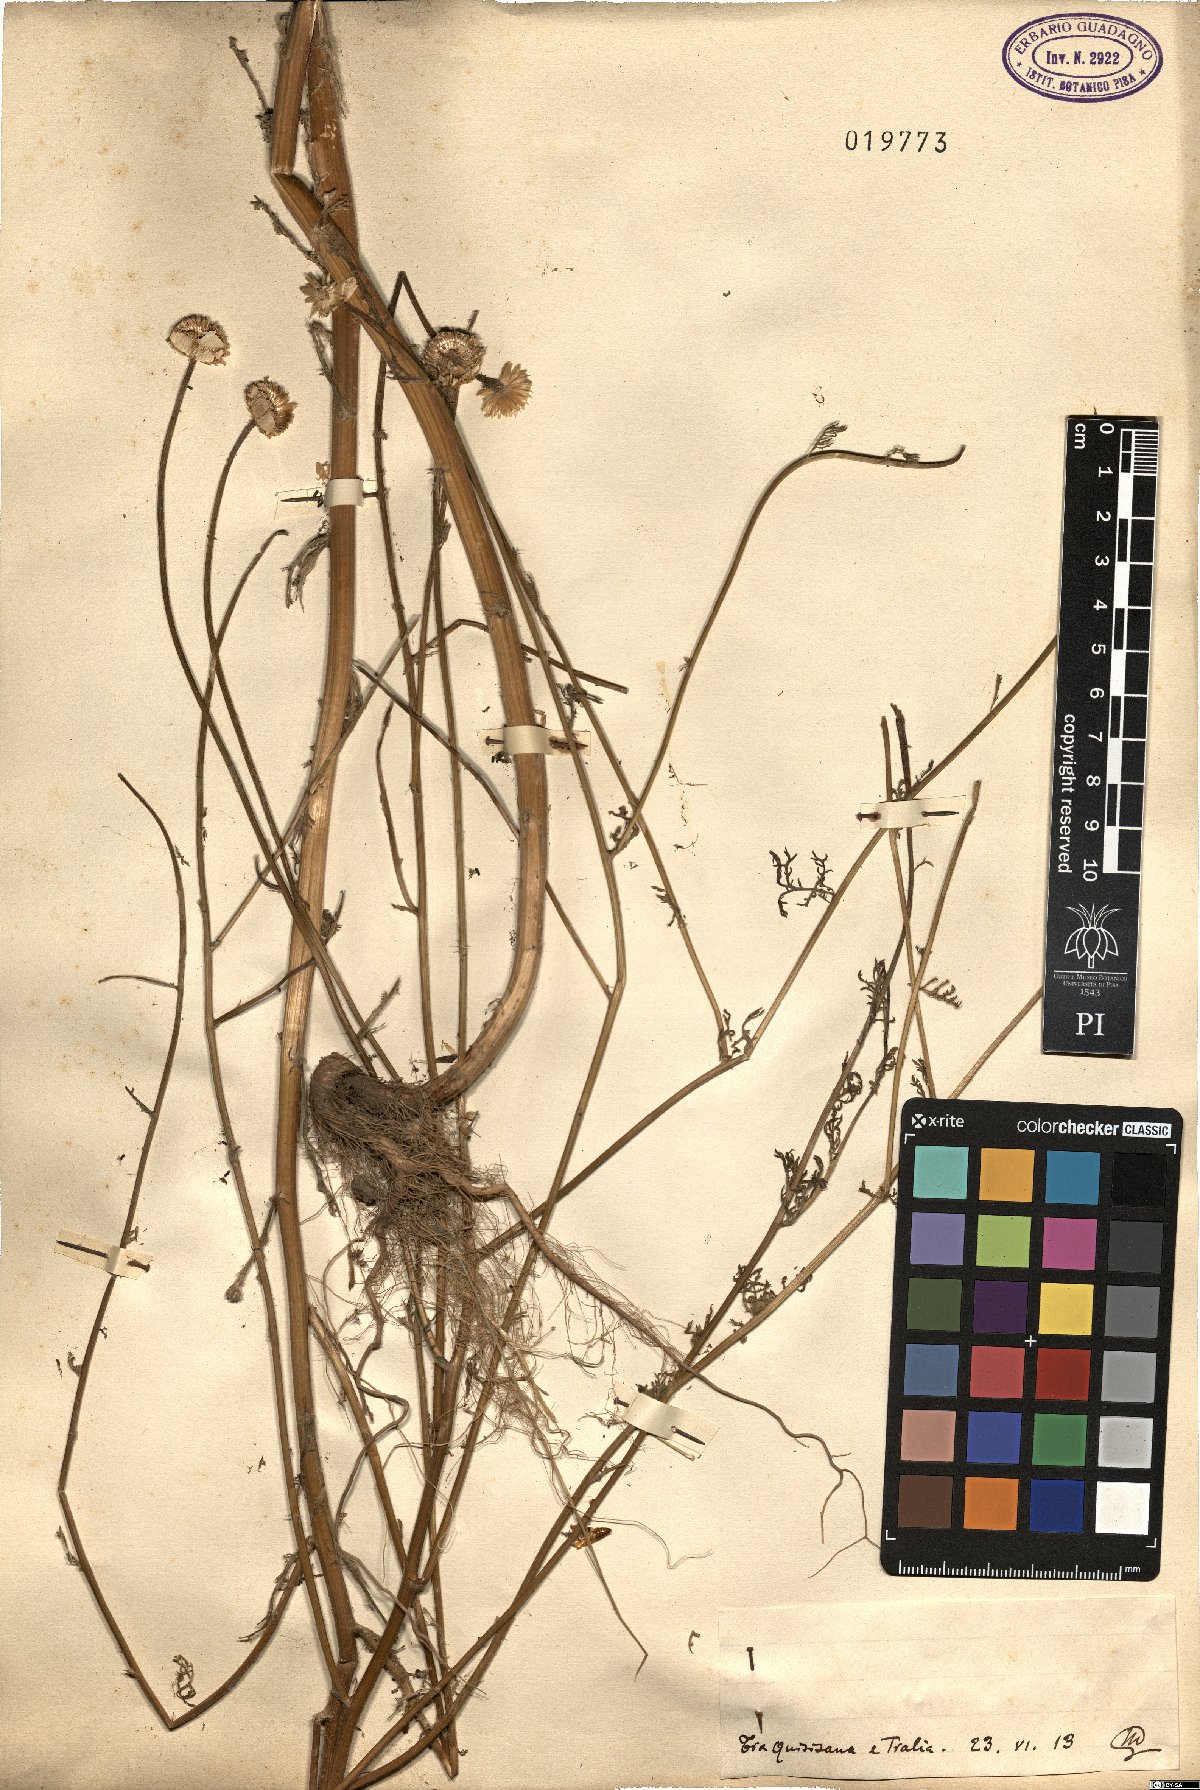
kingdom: Plantae
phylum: Tracheophyta
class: Magnoliopsida
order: Asterales
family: Asteraceae
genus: Anthemis
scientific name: Anthemis
